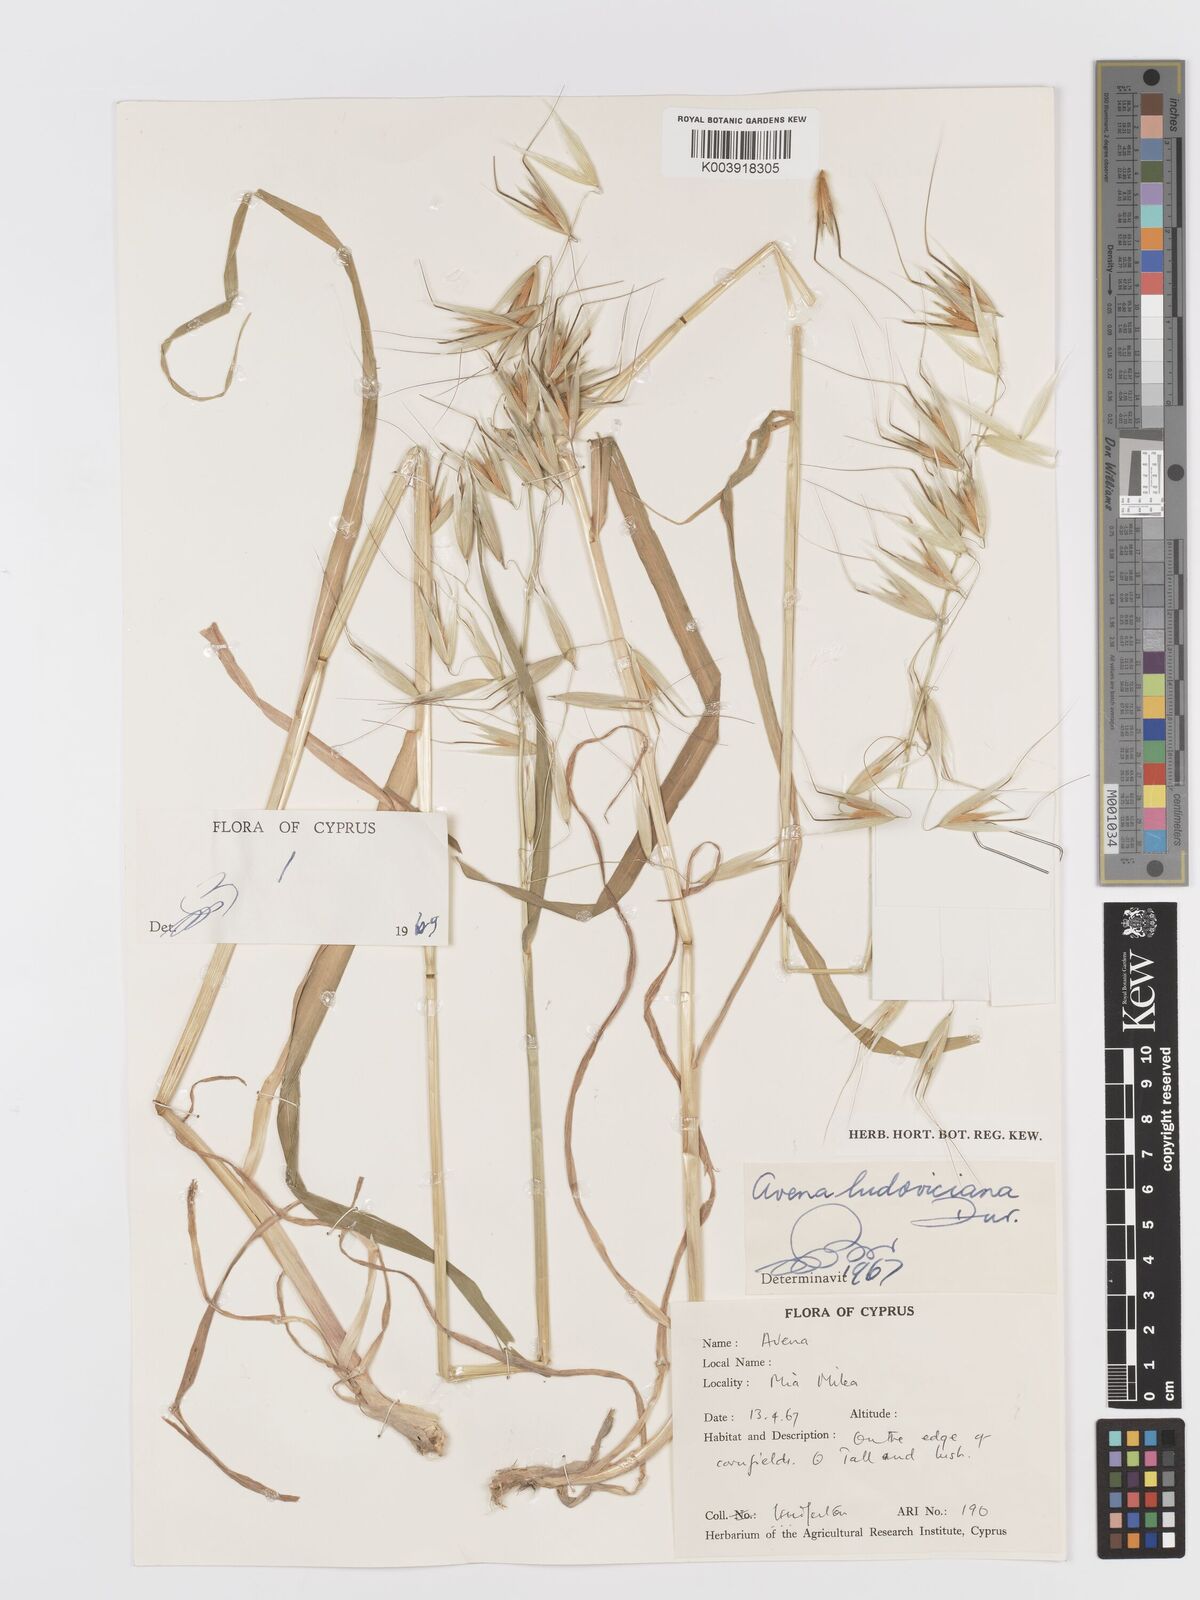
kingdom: Plantae
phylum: Tracheophyta
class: Liliopsida
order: Poales
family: Poaceae
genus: Avena
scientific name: Avena sterilis
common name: Animated oat
